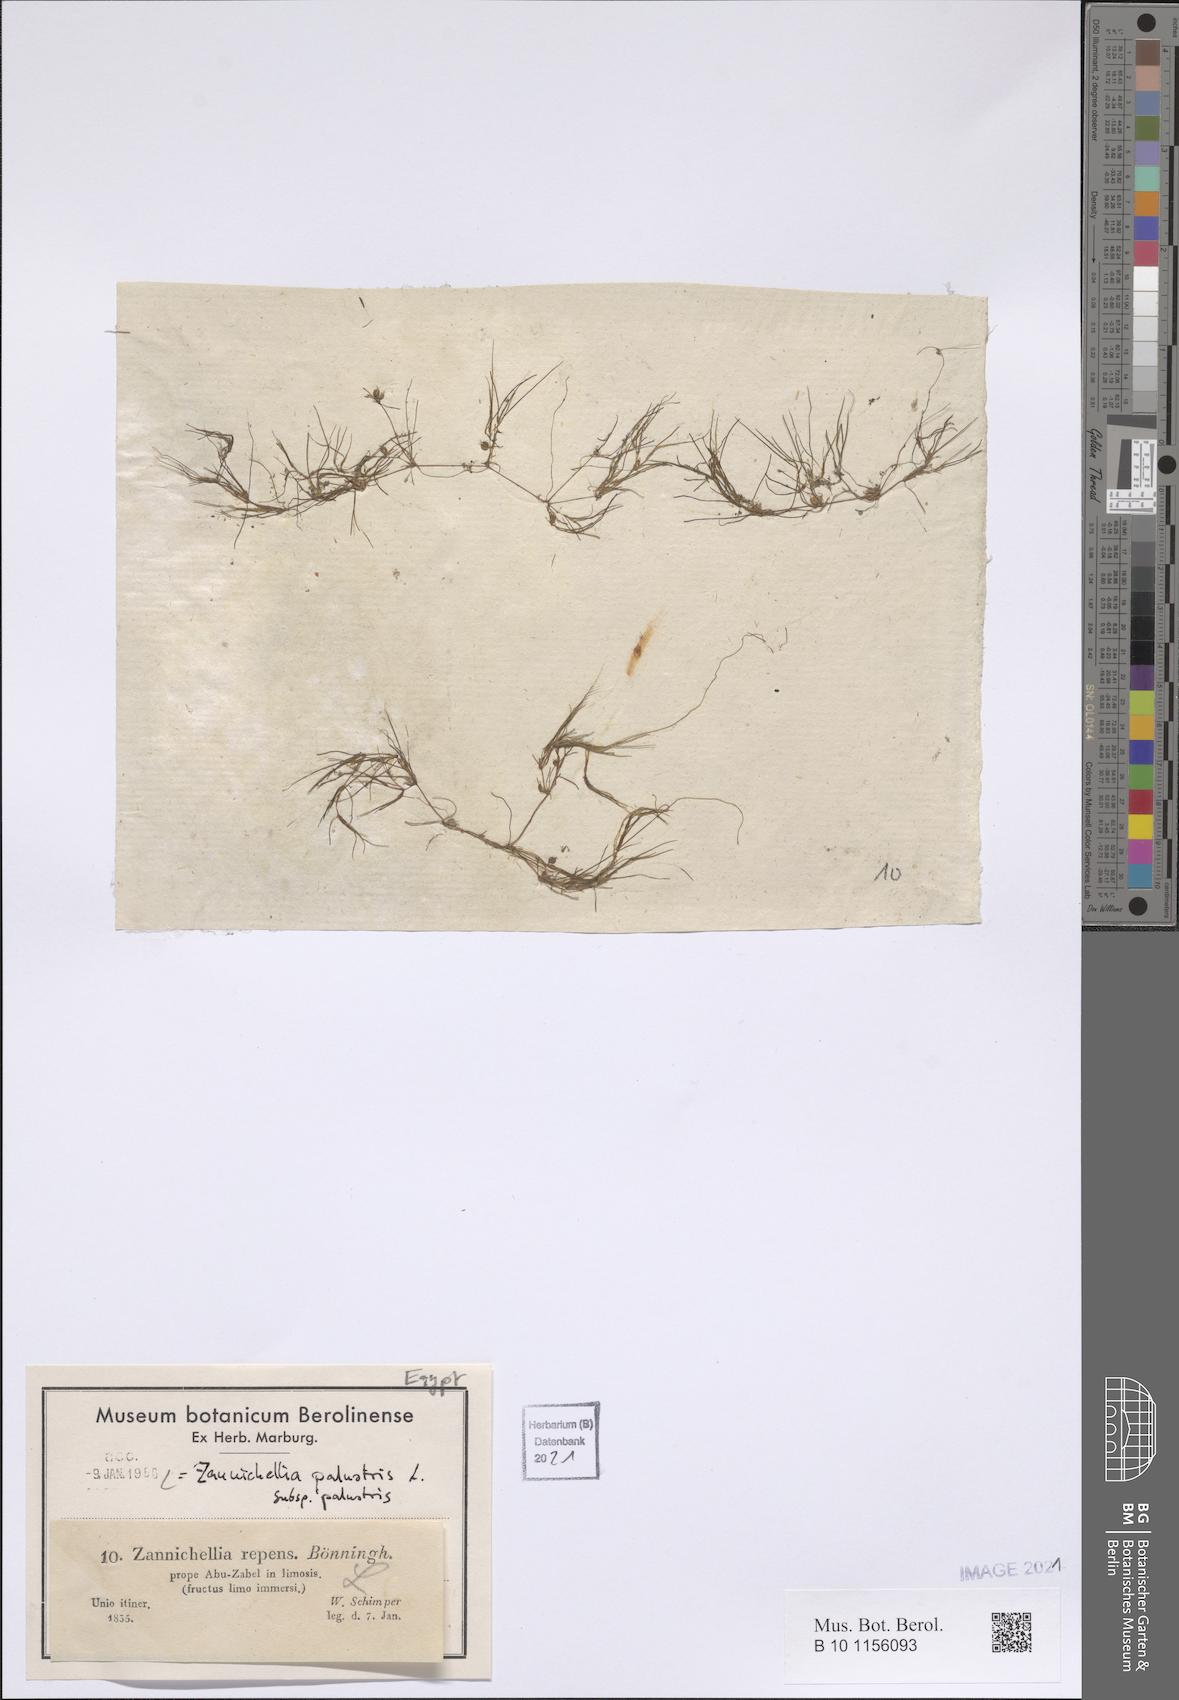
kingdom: Plantae
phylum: Tracheophyta
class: Liliopsida
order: Alismatales
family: Potamogetonaceae
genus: Zannichellia
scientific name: Zannichellia palustris
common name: Horned pondweed
